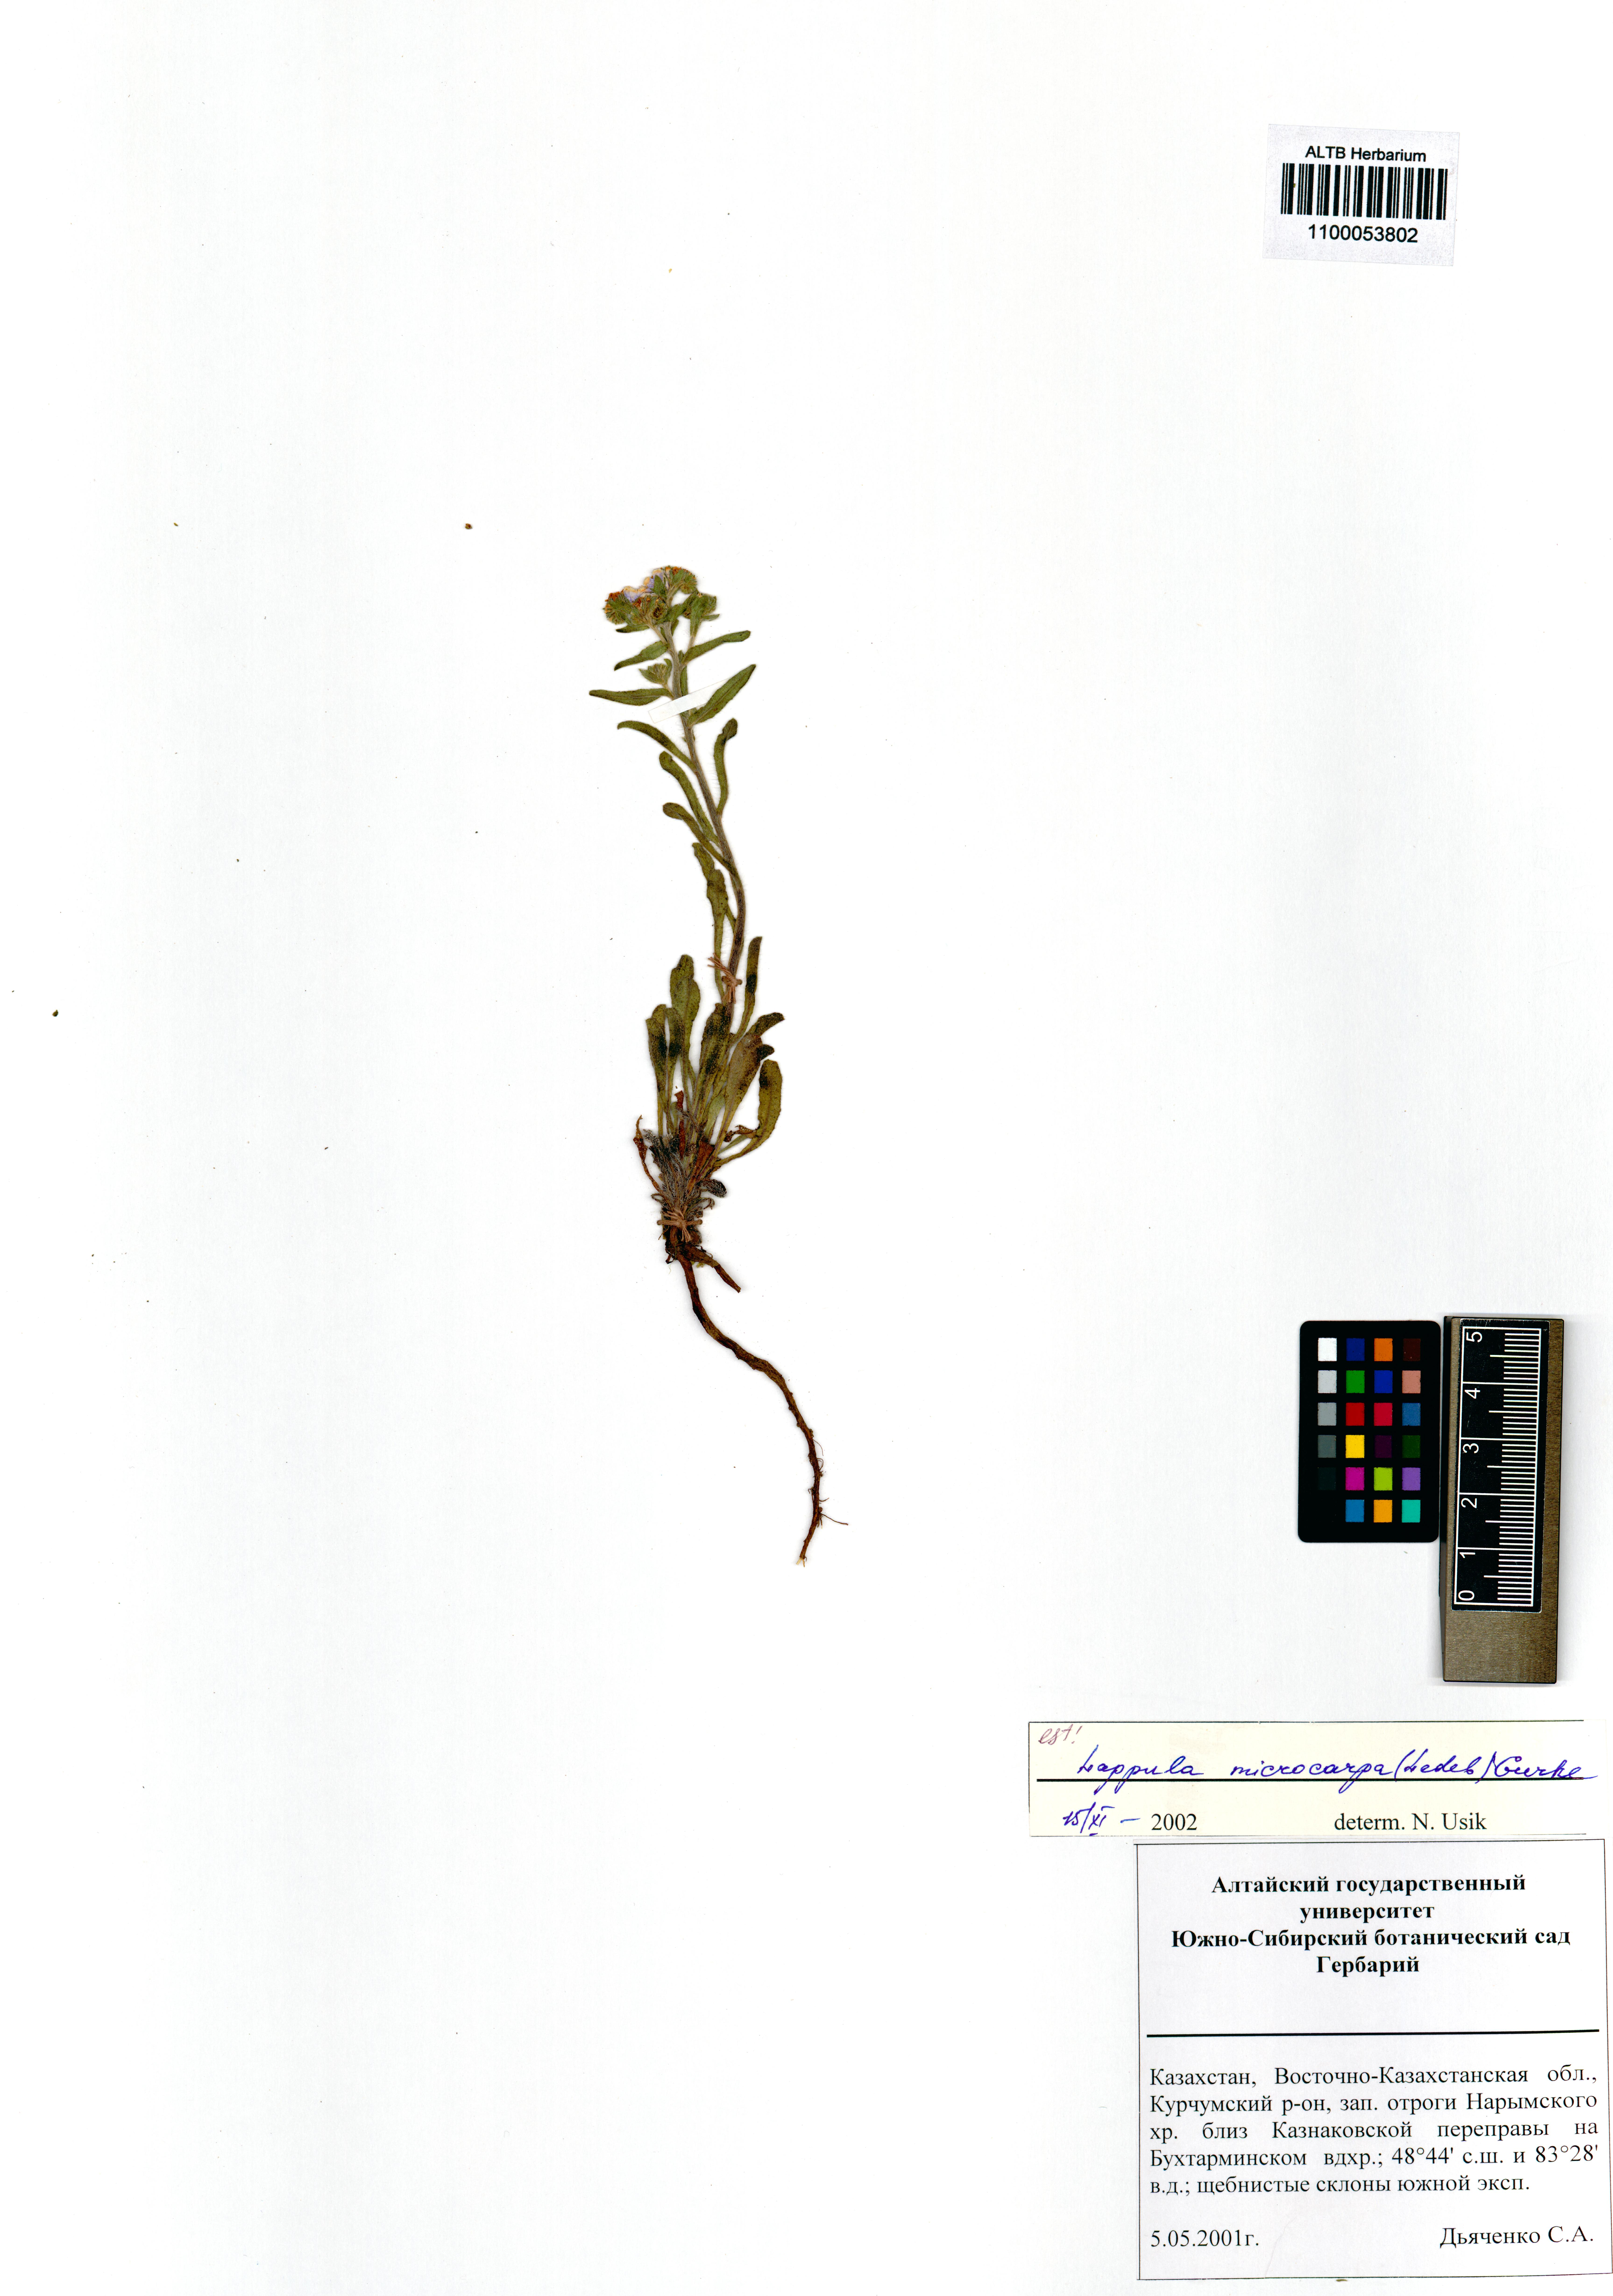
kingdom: Plantae
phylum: Tracheophyta
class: Magnoliopsida
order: Boraginales
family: Boraginaceae
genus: Lappula
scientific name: Lappula microcarpa
